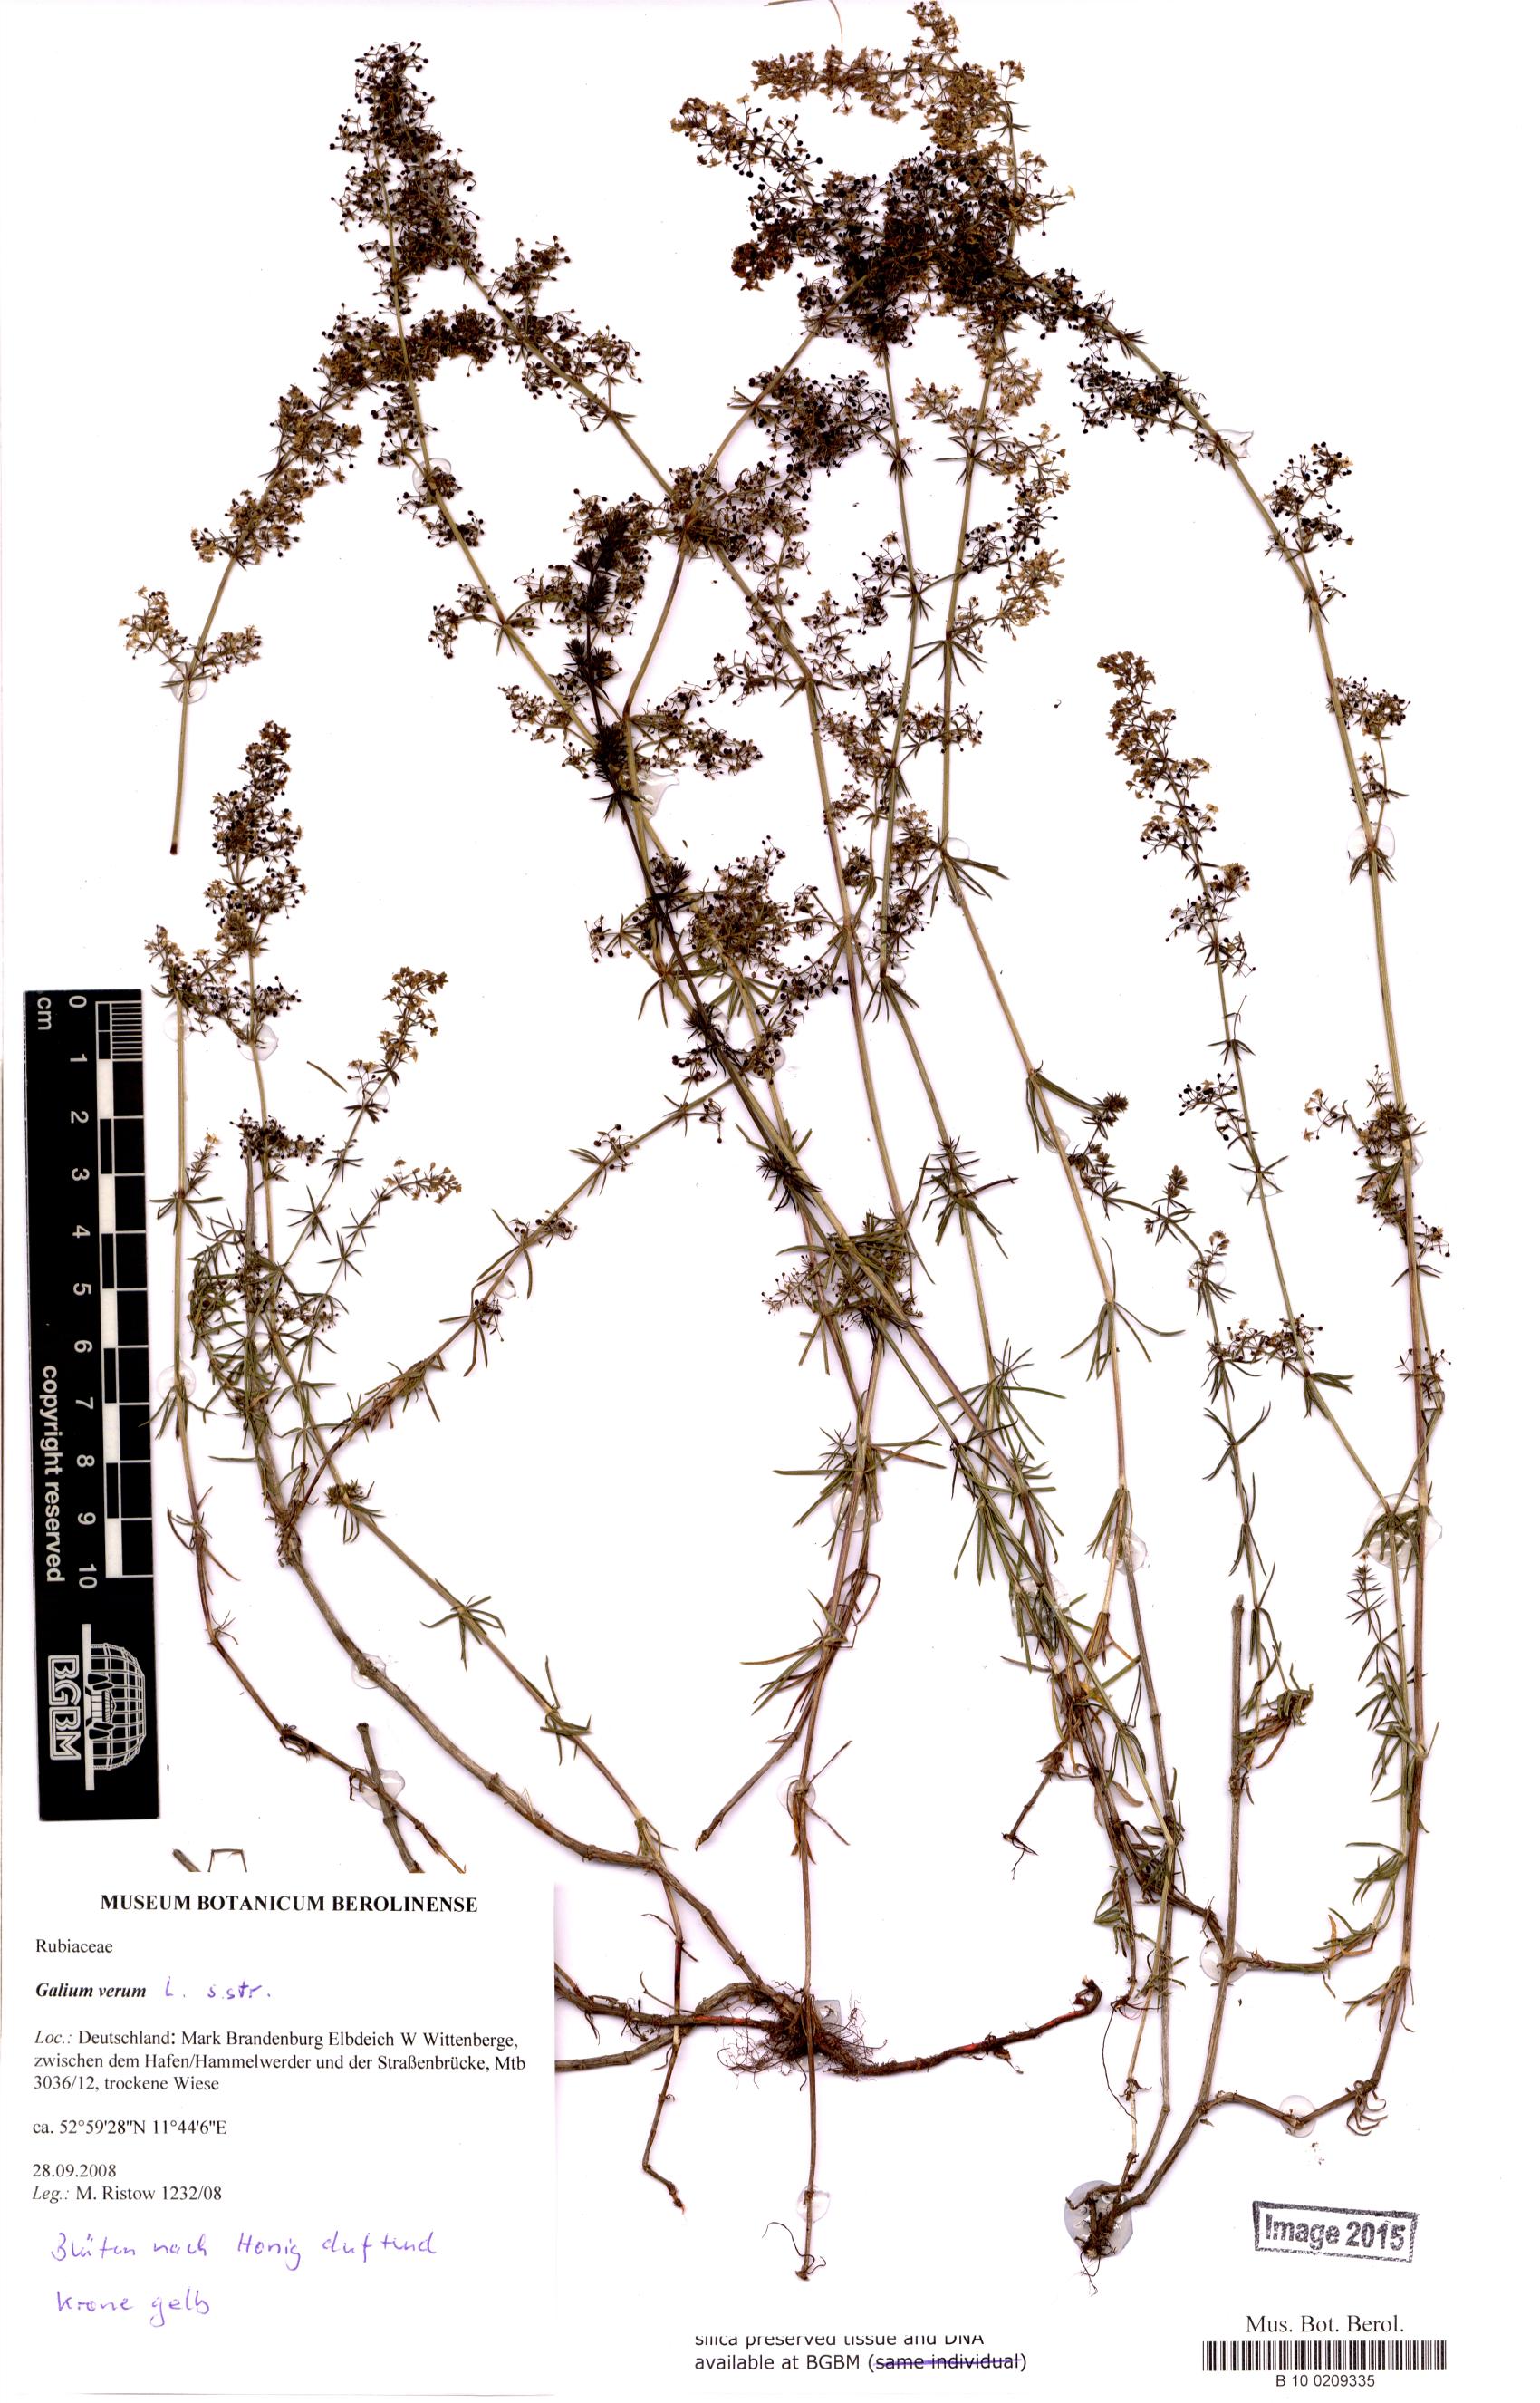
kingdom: Plantae
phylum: Tracheophyta
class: Magnoliopsida
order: Gentianales
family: Rubiaceae
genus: Galium
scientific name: Galium
